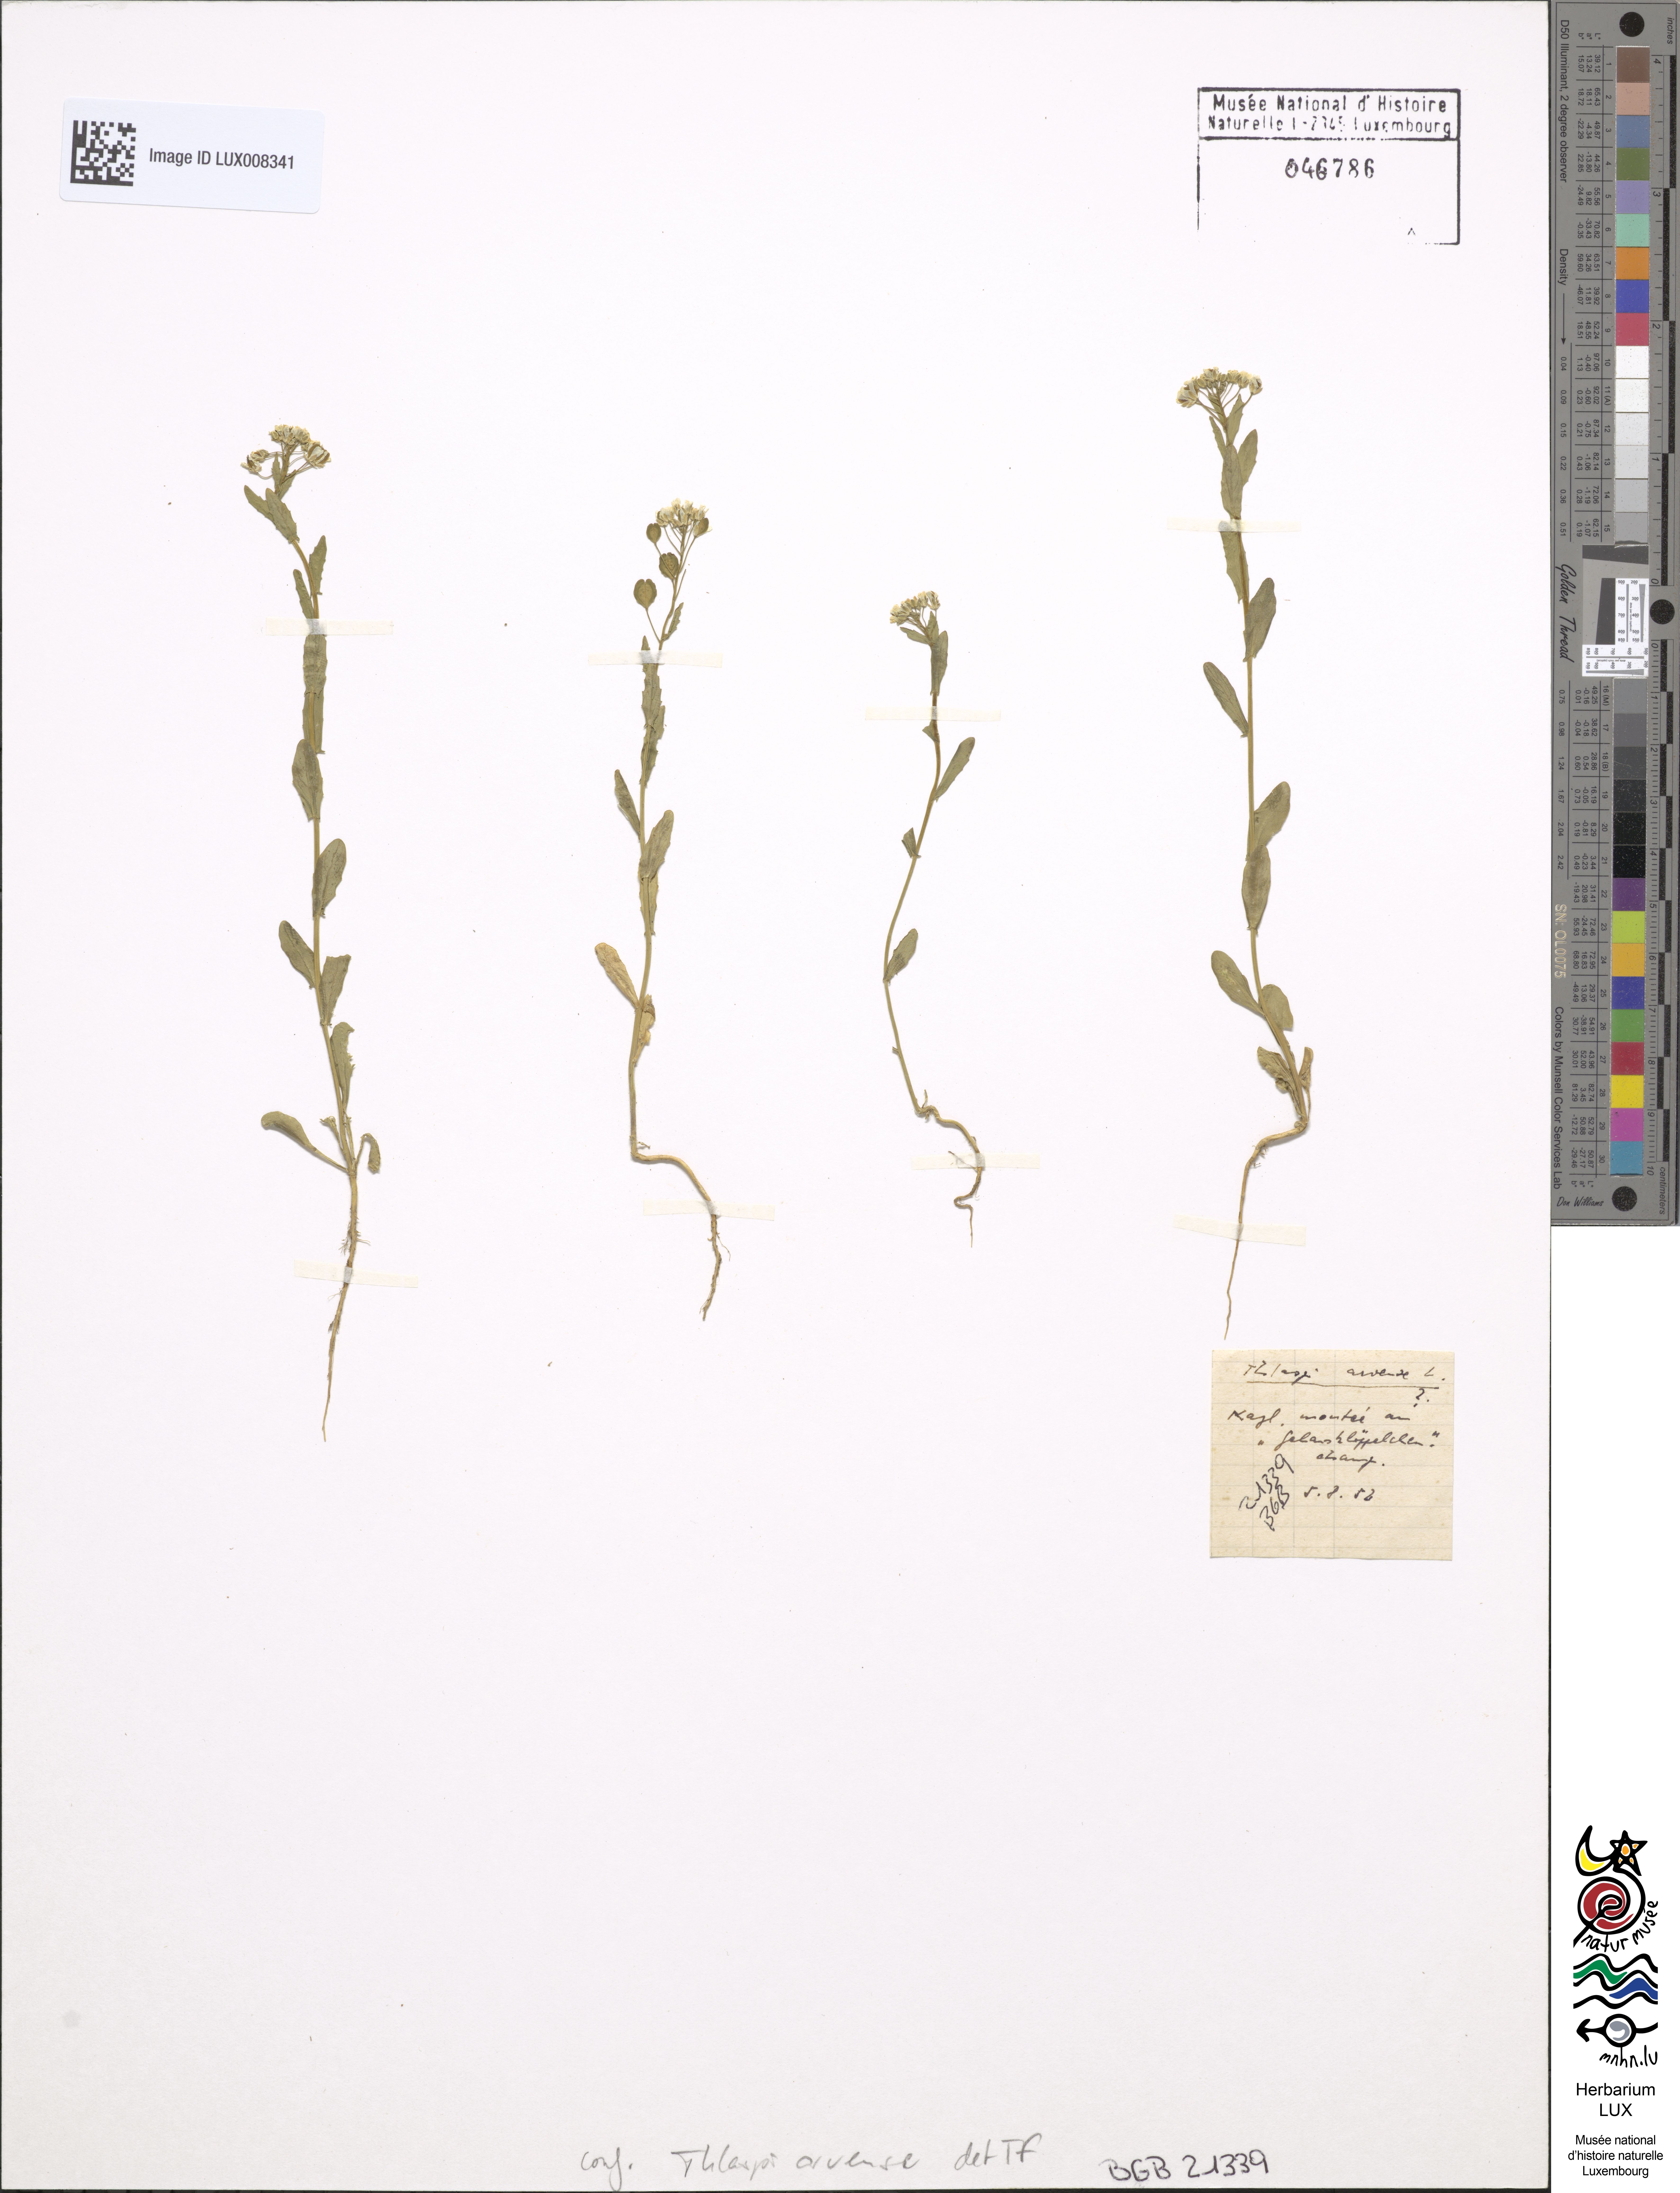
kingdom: Plantae
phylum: Tracheophyta
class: Magnoliopsida
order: Brassicales
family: Brassicaceae
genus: Thlaspi
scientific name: Thlaspi arvense
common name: Field pennycress
